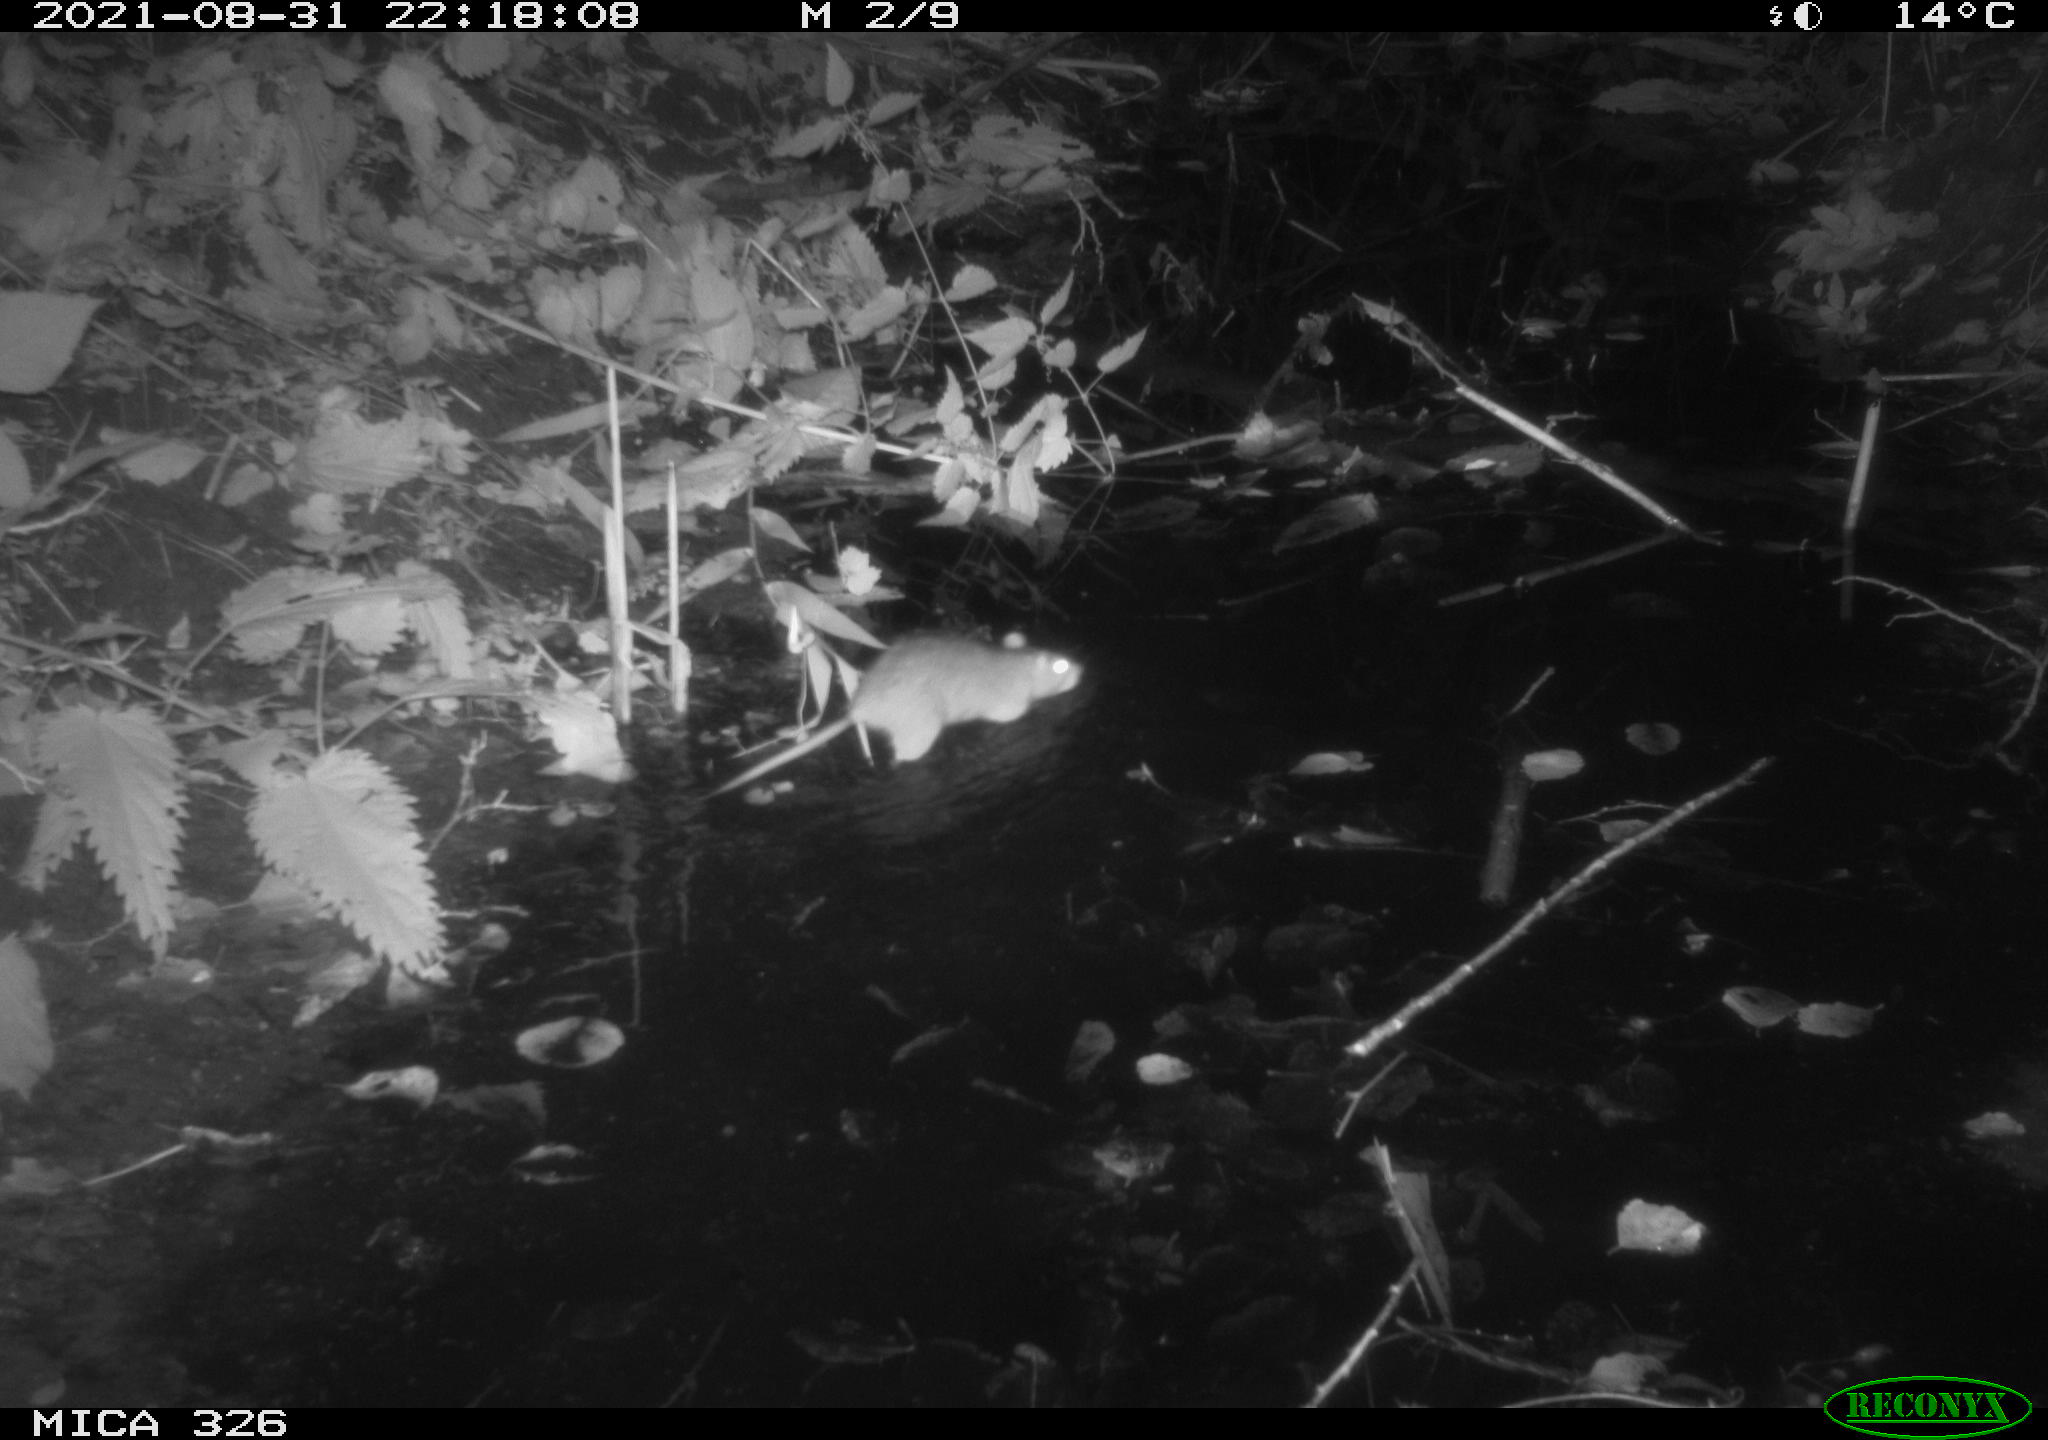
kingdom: Animalia
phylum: Chordata
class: Mammalia
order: Rodentia
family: Muridae
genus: Rattus
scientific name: Rattus norvegicus
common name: Brown rat
